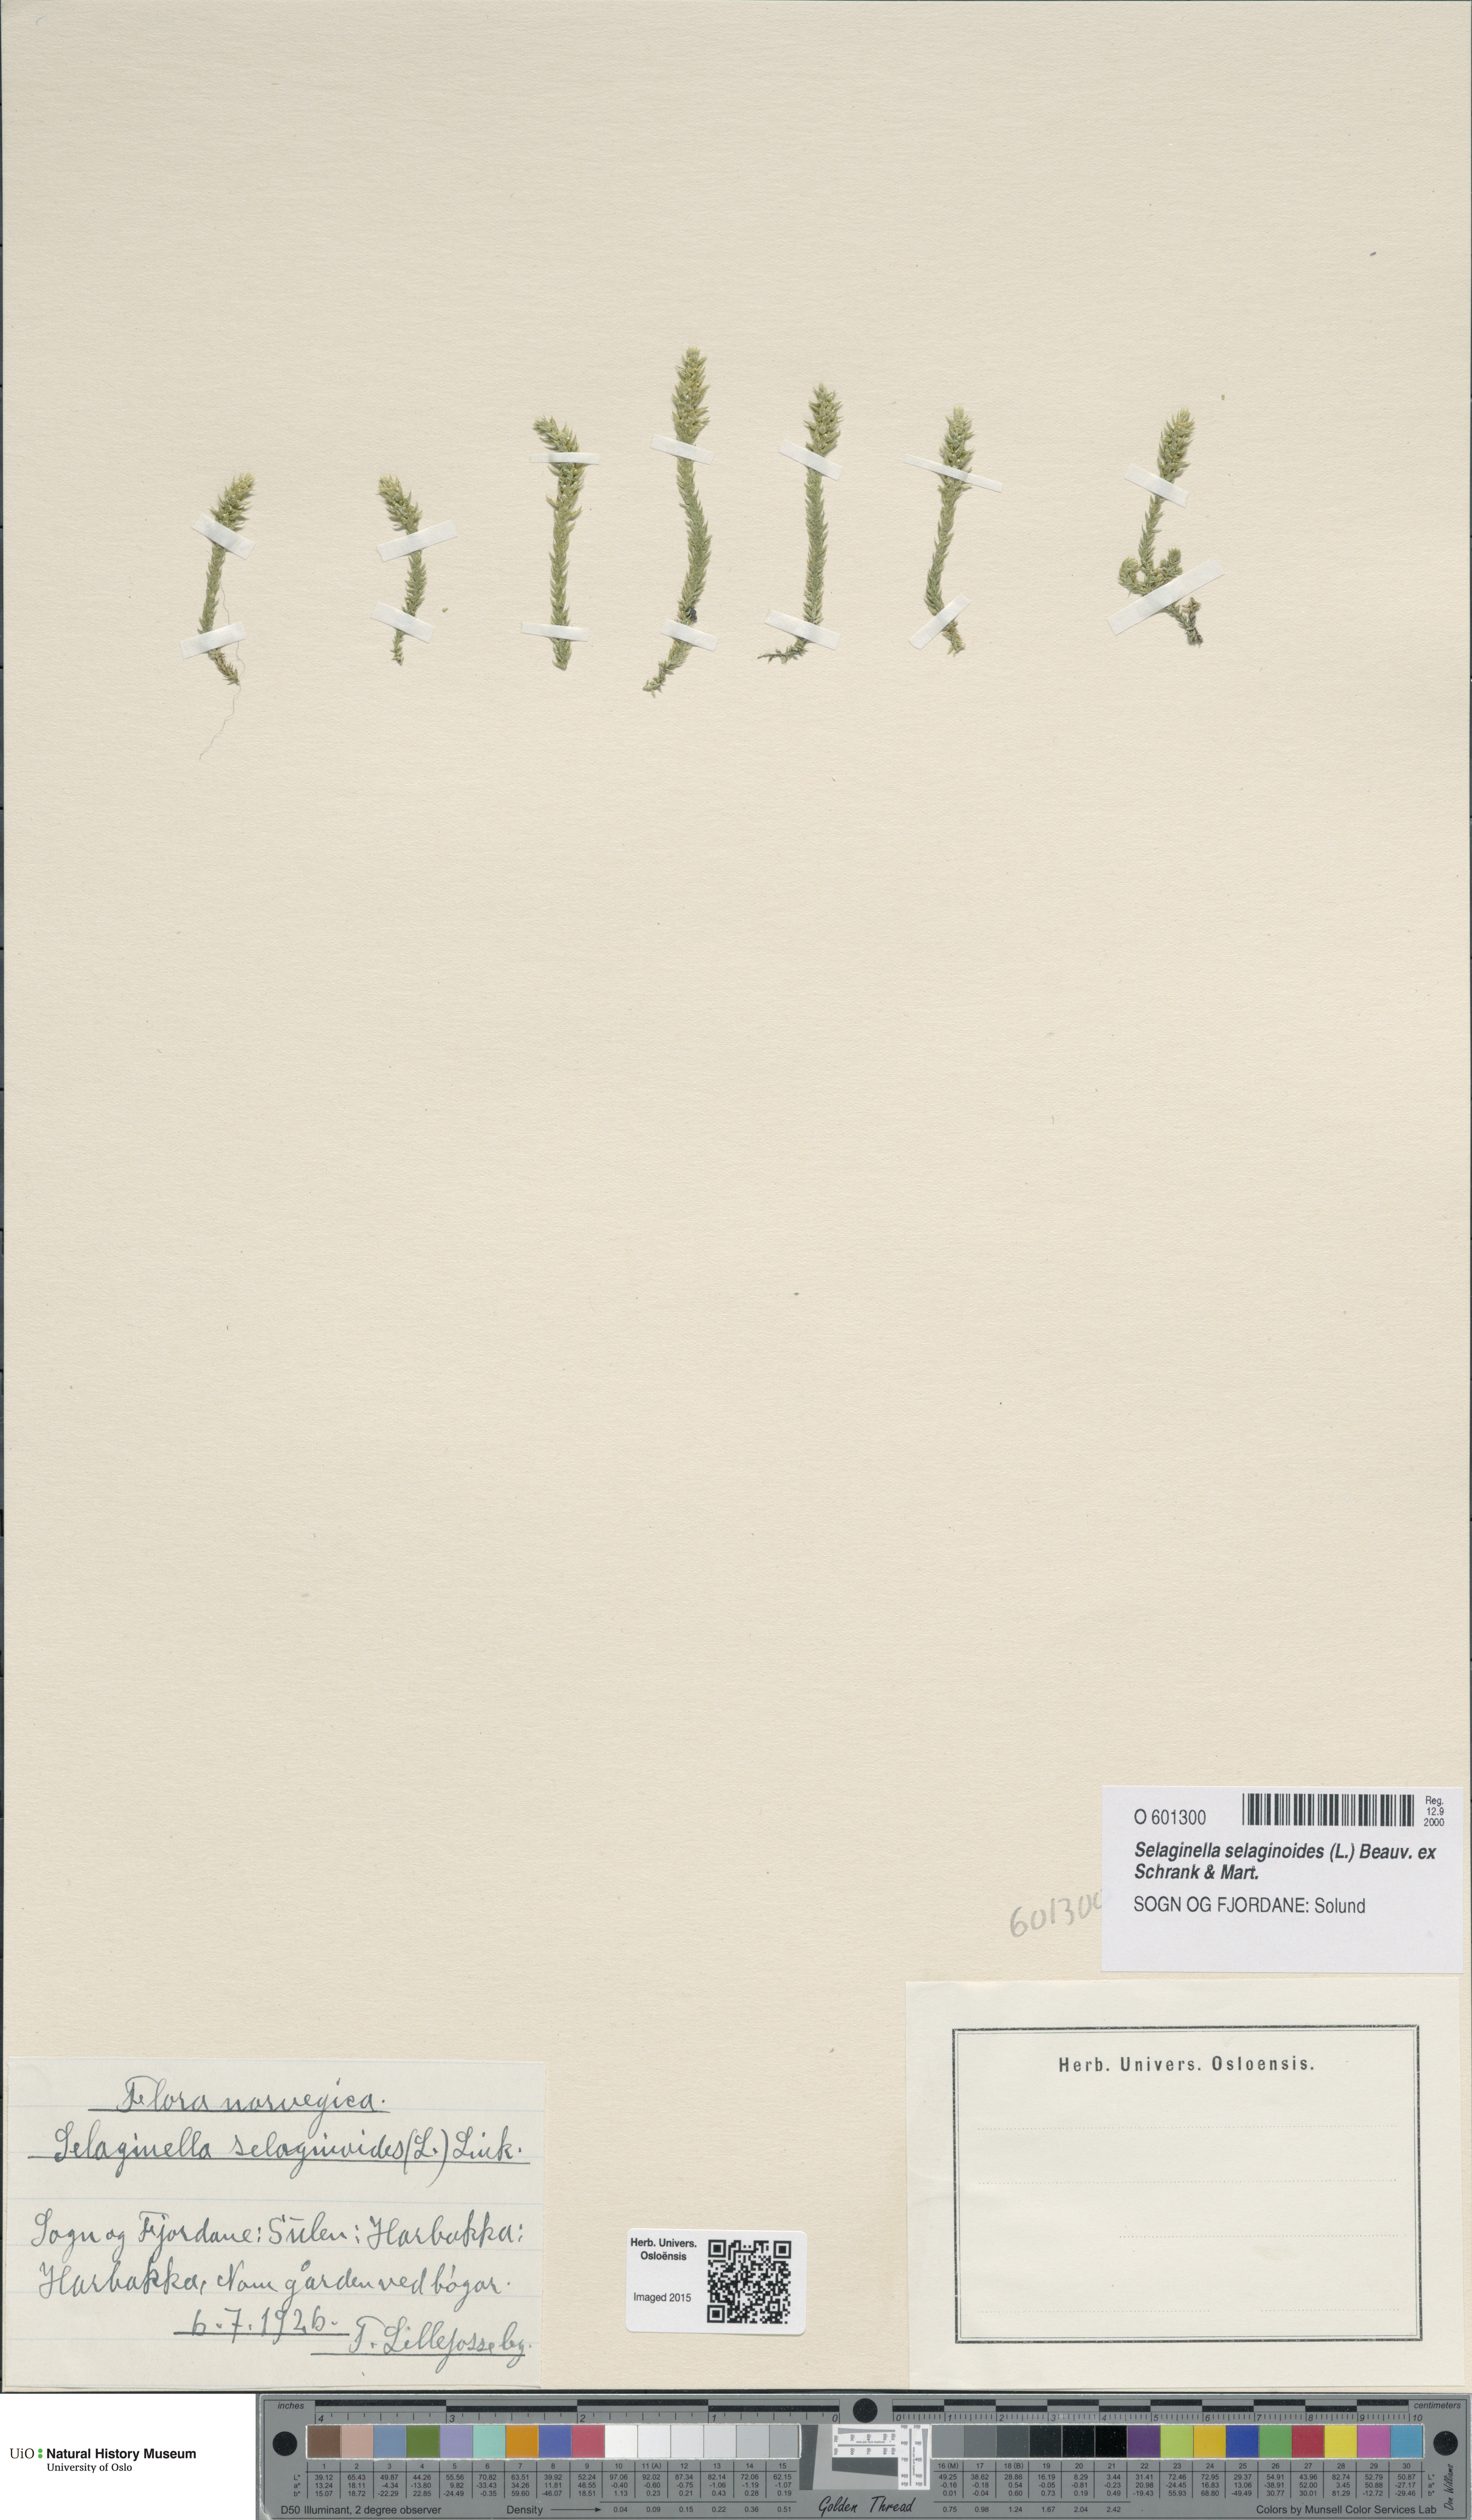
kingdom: Plantae
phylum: Tracheophyta
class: Lycopodiopsida
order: Selaginellales
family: Selaginellaceae
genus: Selaginella
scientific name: Selaginella selaginoides
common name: Prickly mountain-moss
